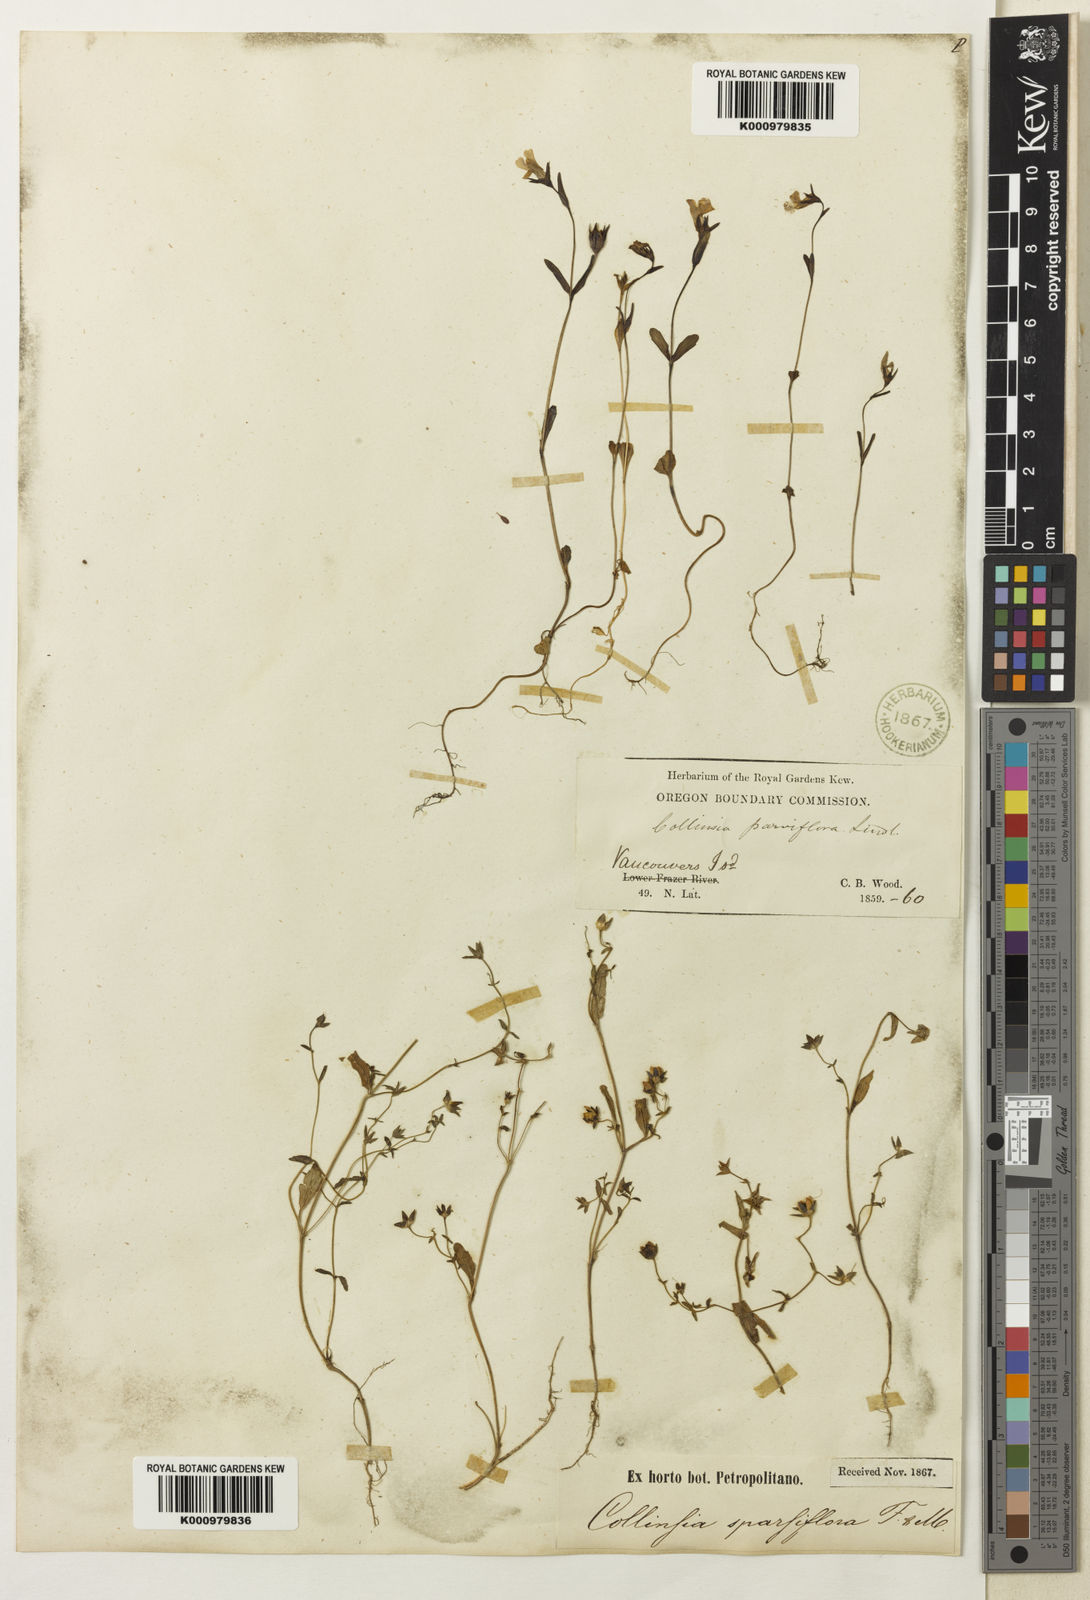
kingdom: Plantae
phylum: Tracheophyta
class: Magnoliopsida
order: Lamiales
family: Plantaginaceae
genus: Collinsia
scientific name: Collinsia parviflora
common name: Blue-lips
